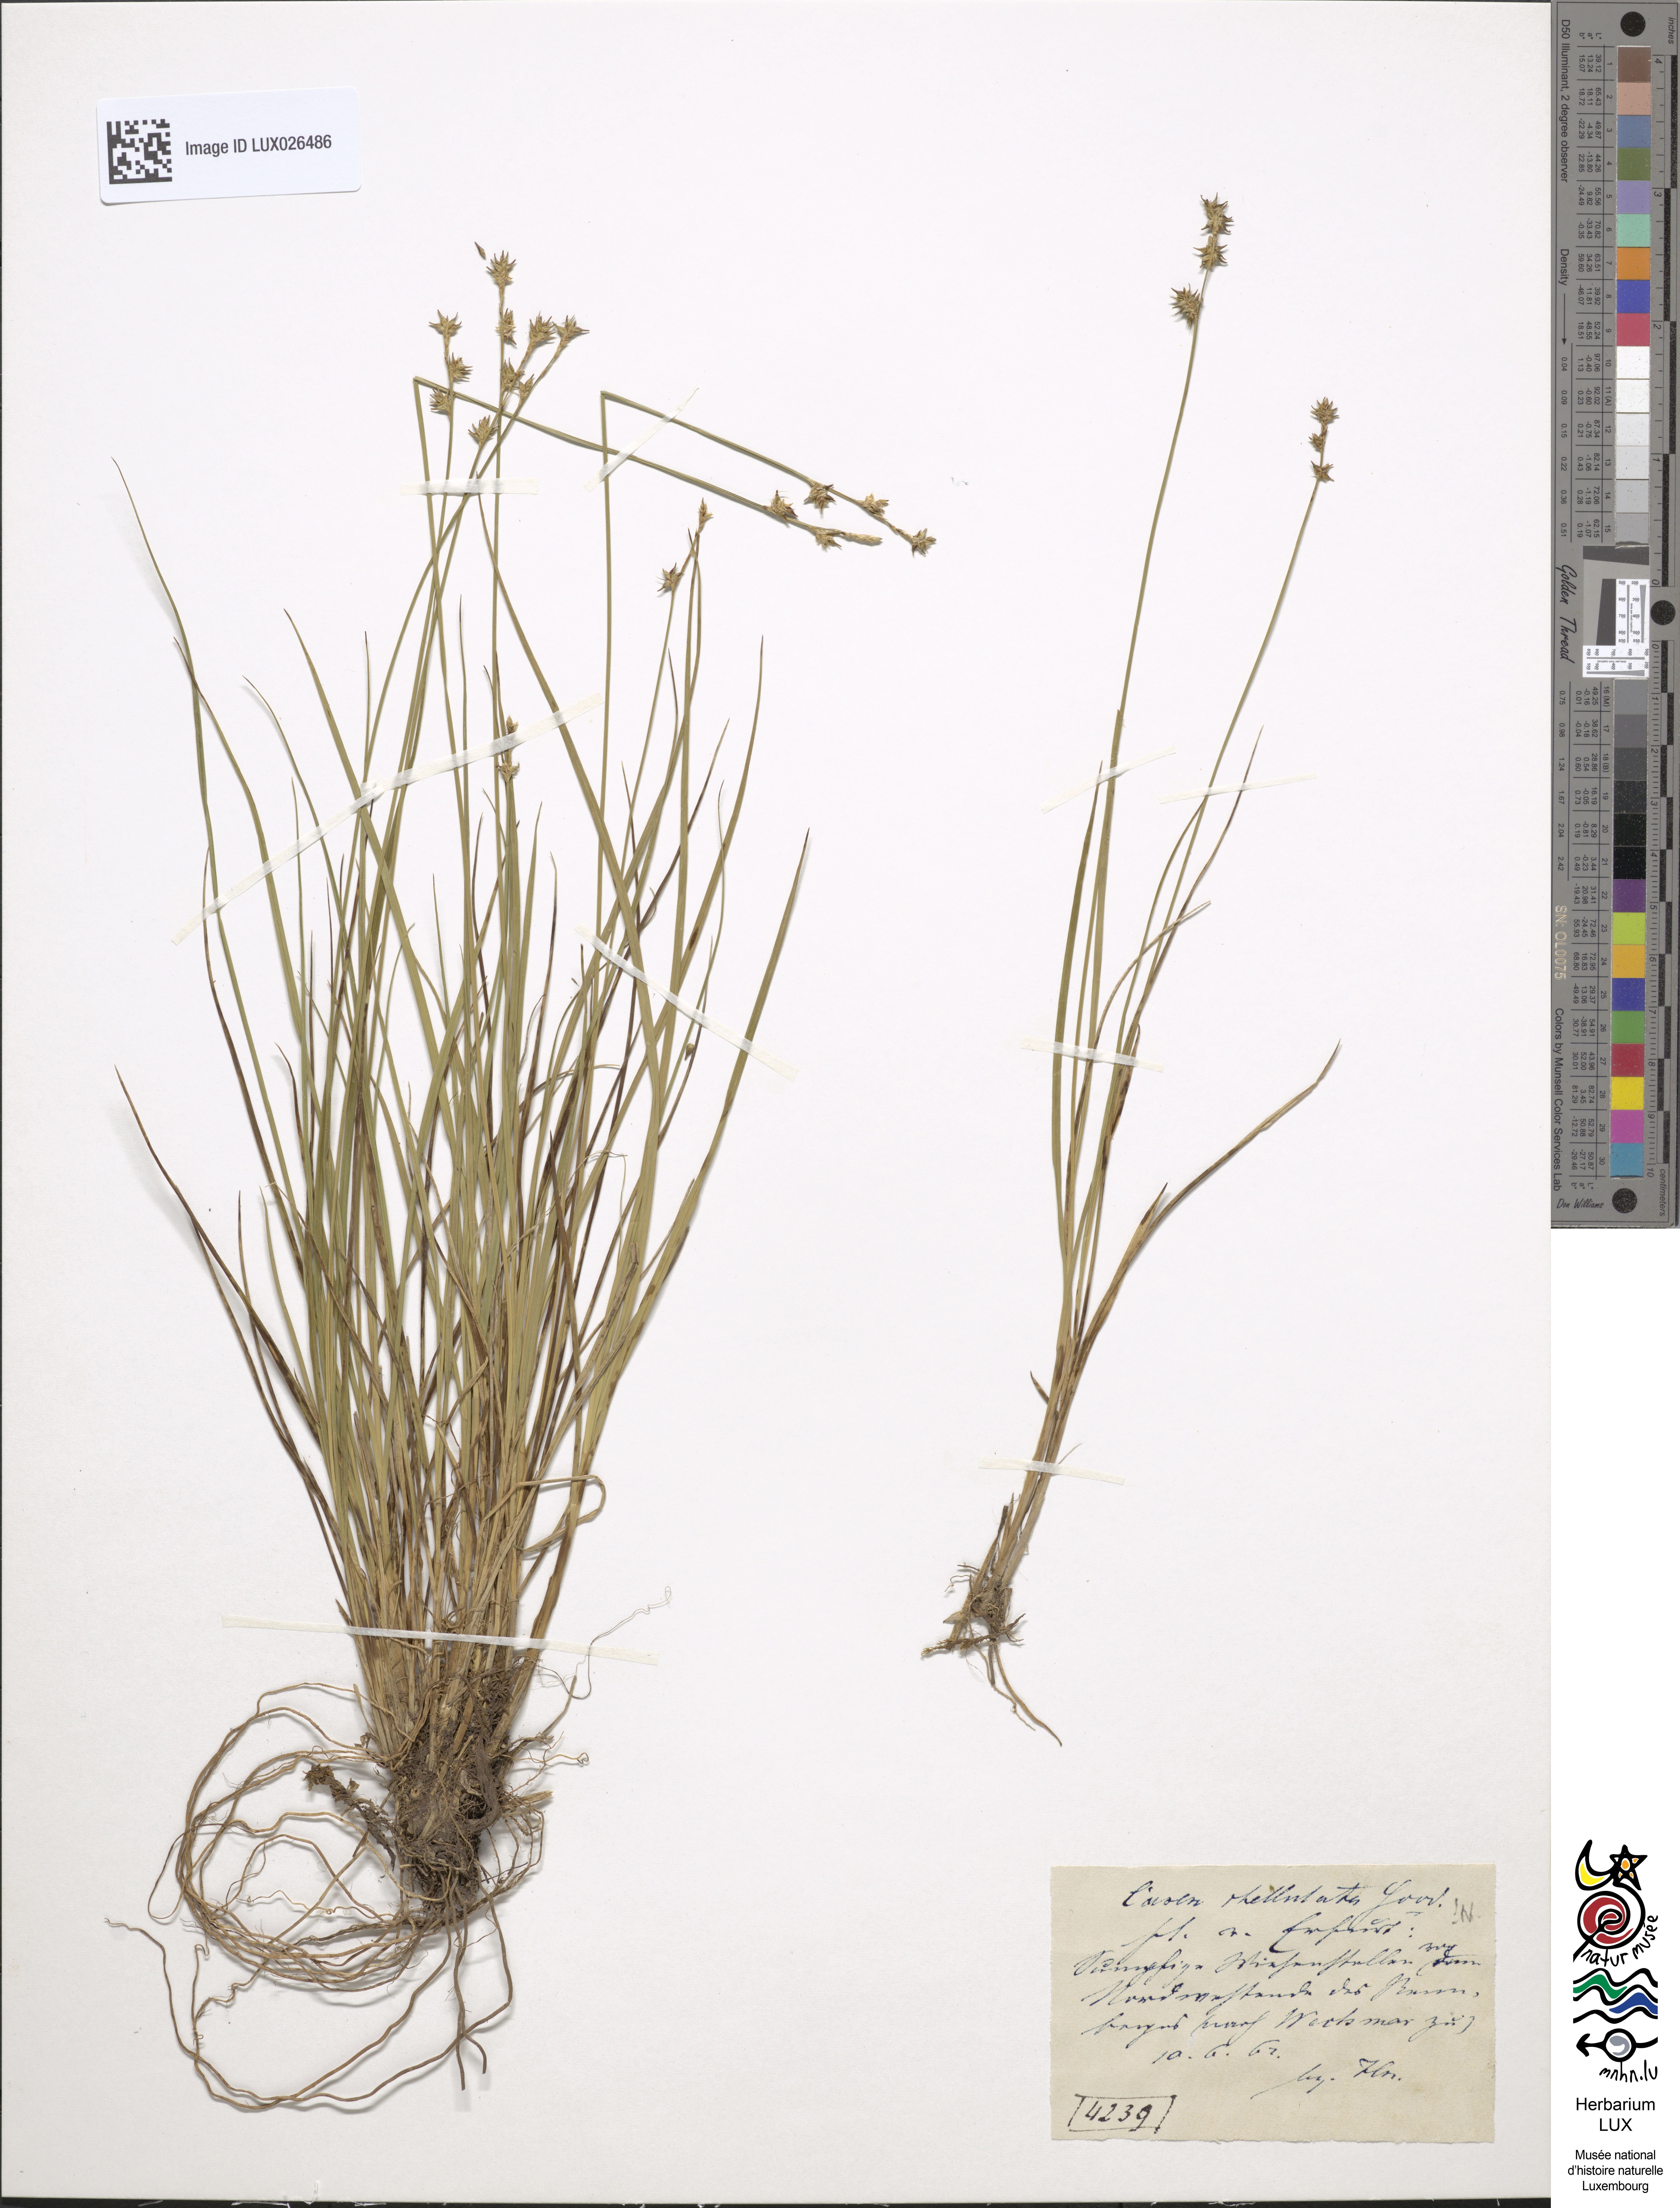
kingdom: Plantae
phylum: Tracheophyta
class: Liliopsida
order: Poales
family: Cyperaceae
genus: Carex
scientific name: Carex echinata
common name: Star sedge
